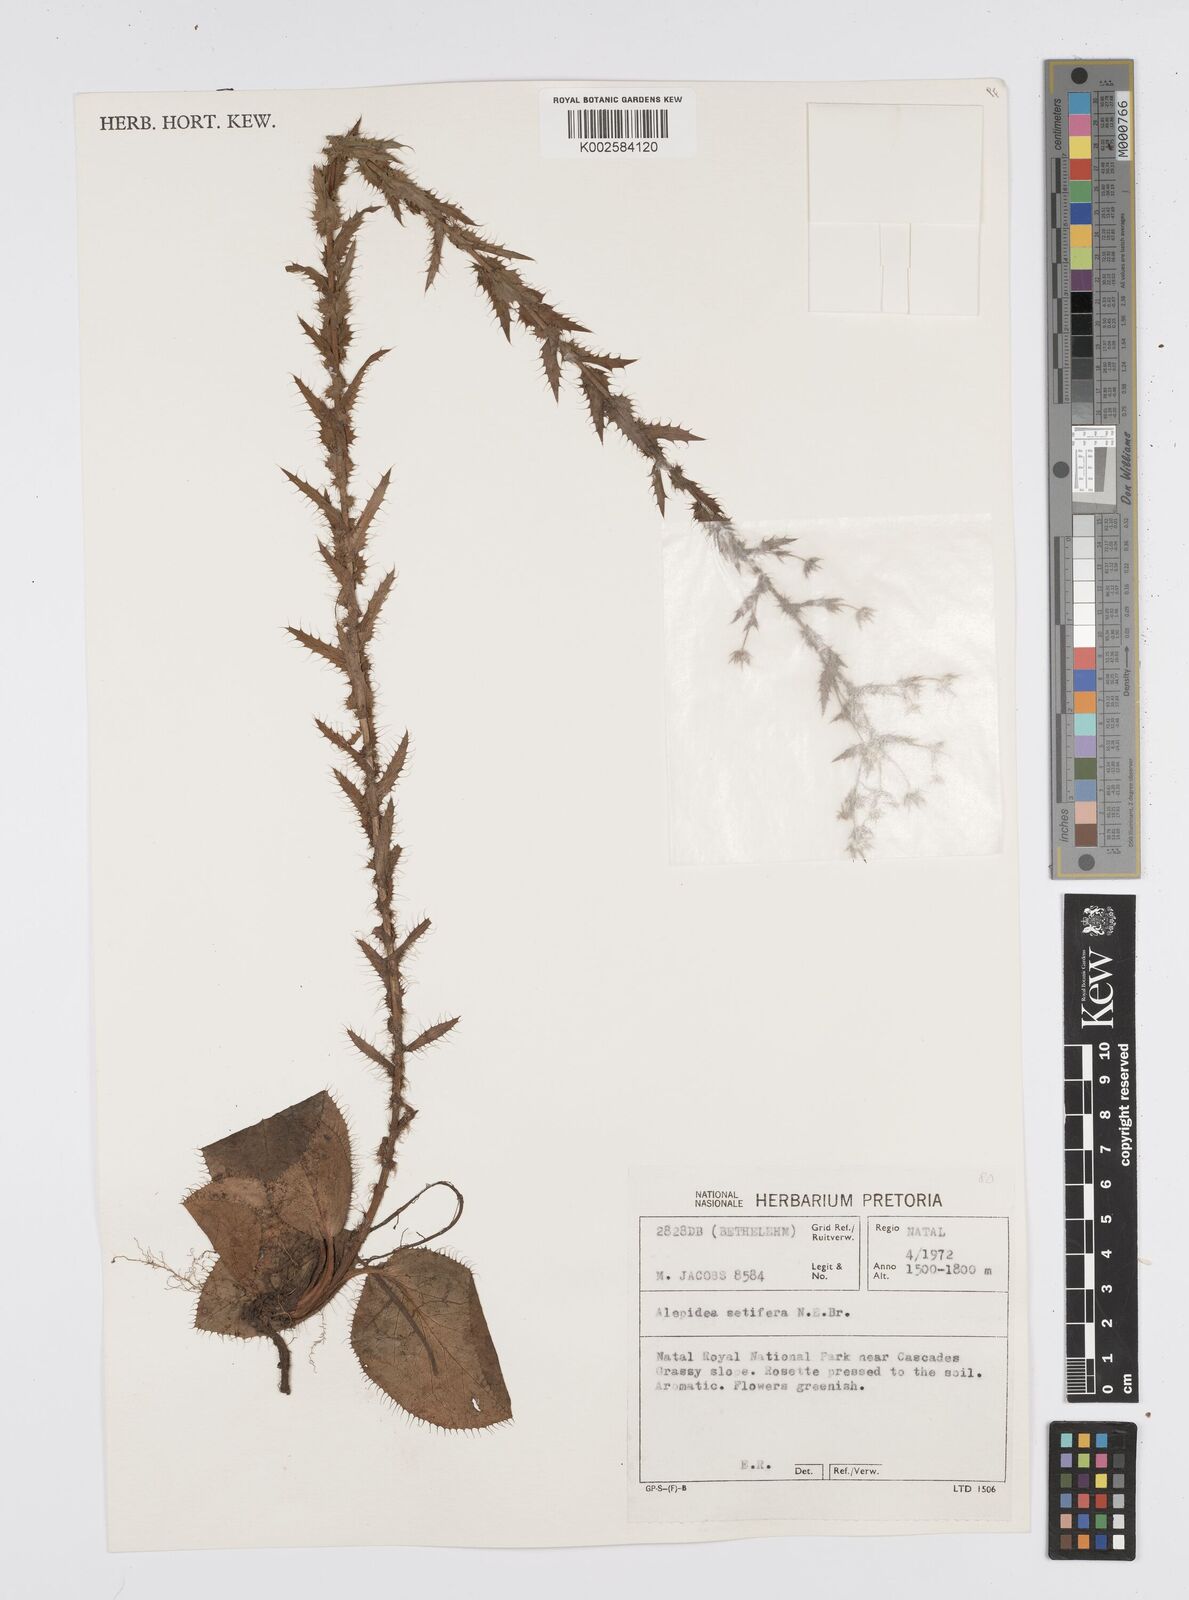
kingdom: Plantae
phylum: Tracheophyta
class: Magnoliopsida
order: Apiales
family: Apiaceae
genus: Alepidea
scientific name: Alepidea setifera
